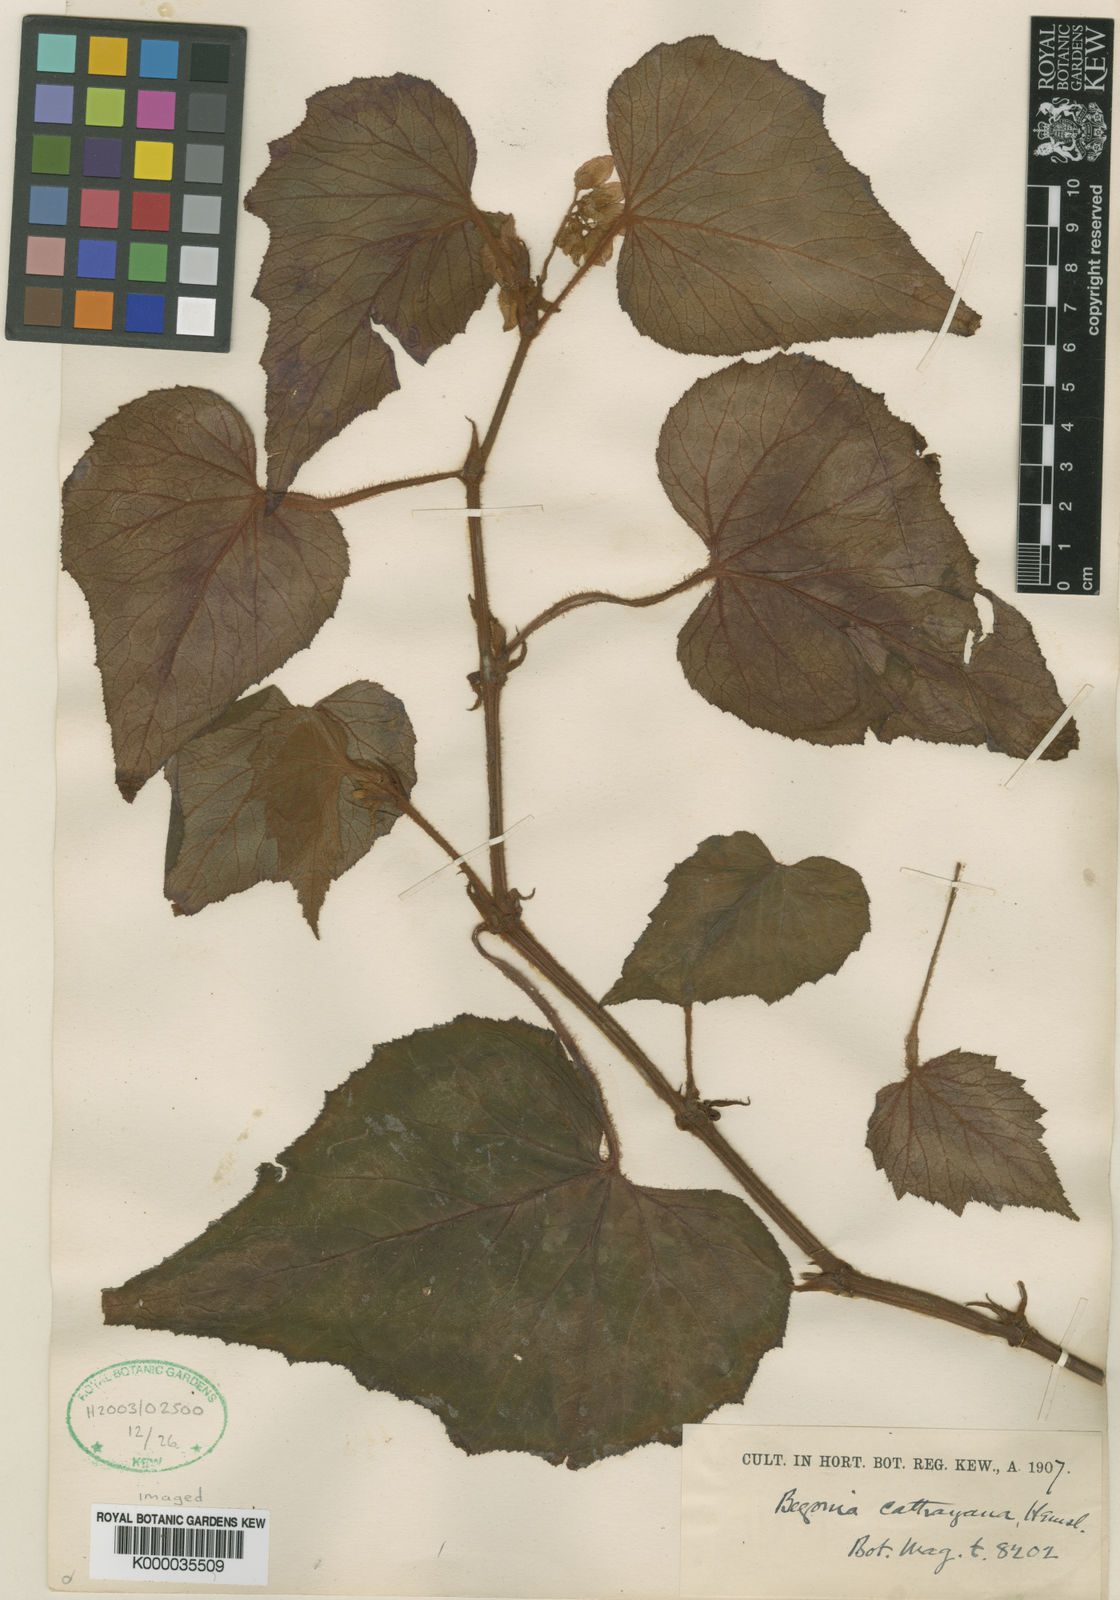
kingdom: Plantae
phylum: Tracheophyta
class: Magnoliopsida
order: Cucurbitales
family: Begoniaceae
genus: Begonia
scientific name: Begonia cathayana
